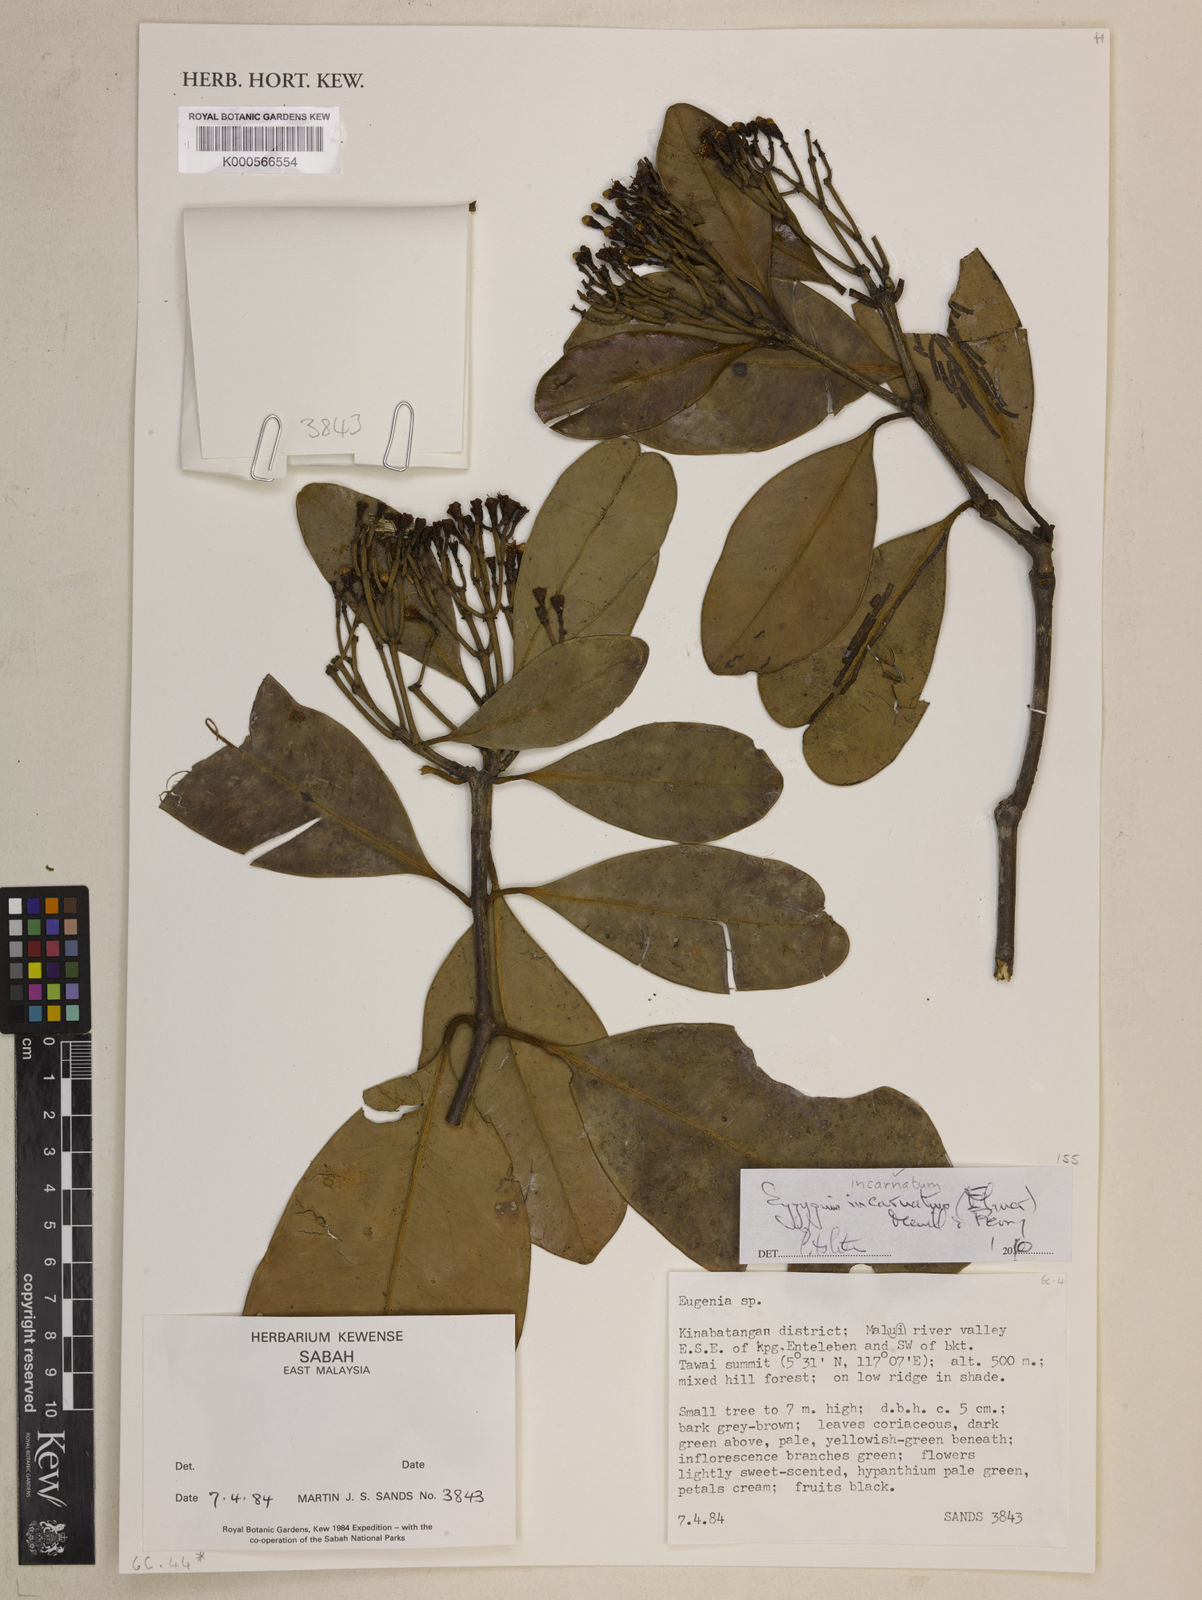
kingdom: Plantae
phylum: Tracheophyta
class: Magnoliopsida
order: Myrtales
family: Myrtaceae
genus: Syzygium
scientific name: Syzygium incarnatum
